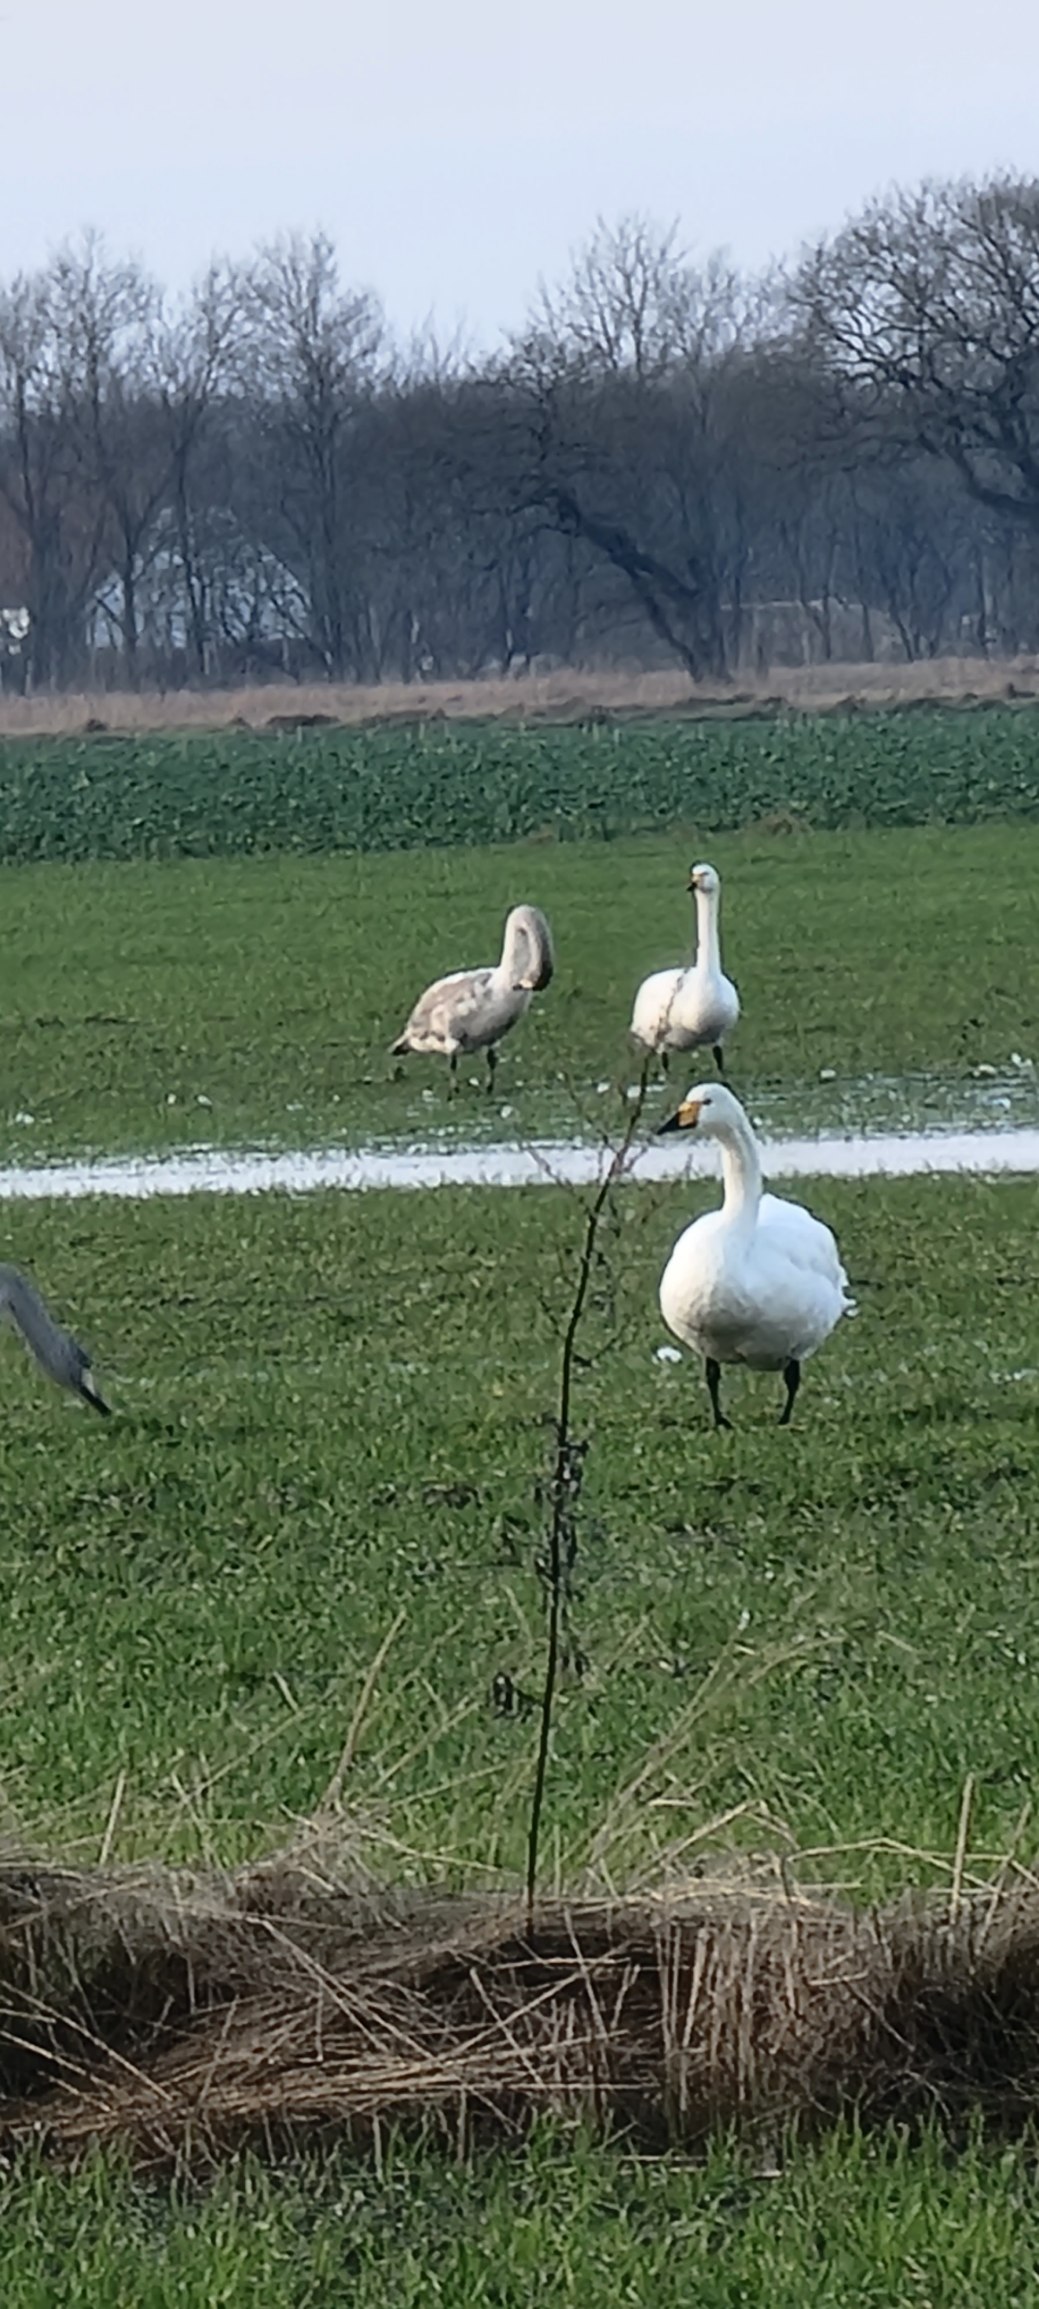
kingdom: Animalia
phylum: Chordata
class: Aves
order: Anseriformes
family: Anatidae
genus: Cygnus
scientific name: Cygnus cygnus
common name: Sangsvane
